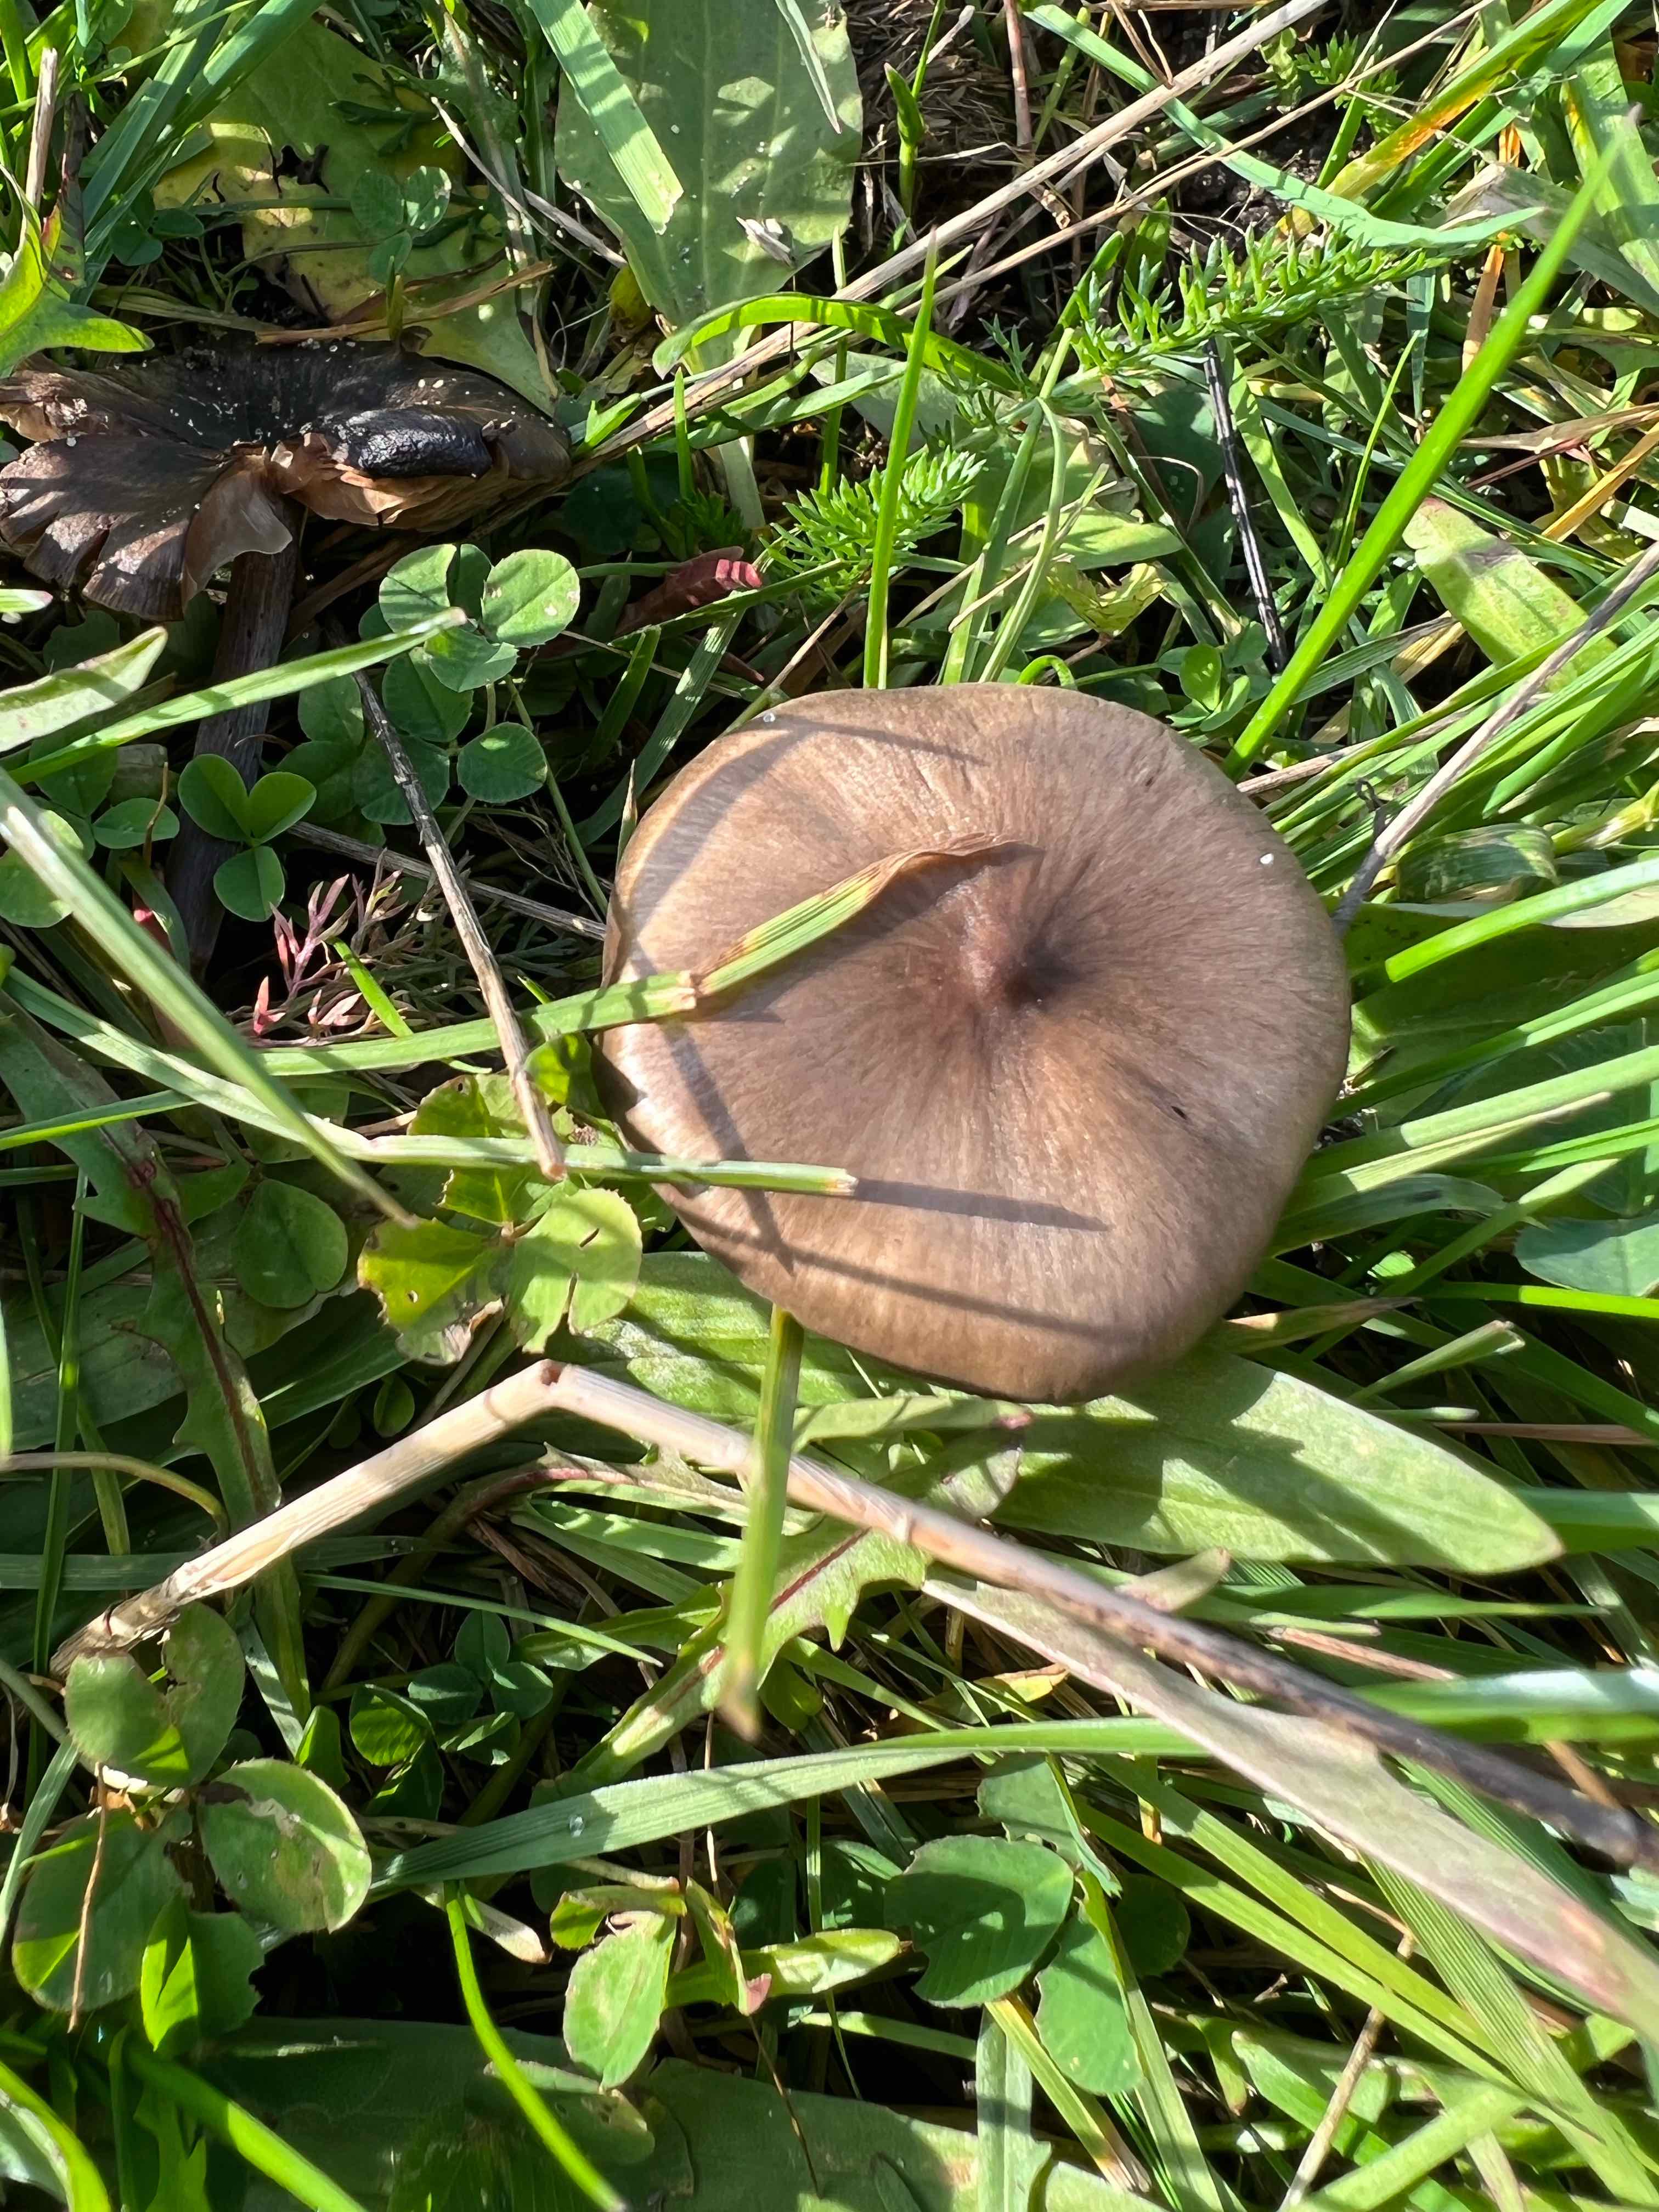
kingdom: Fungi
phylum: Basidiomycota
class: Agaricomycetes
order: Agaricales
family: Entolomataceae
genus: Entoloma
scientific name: Entoloma
